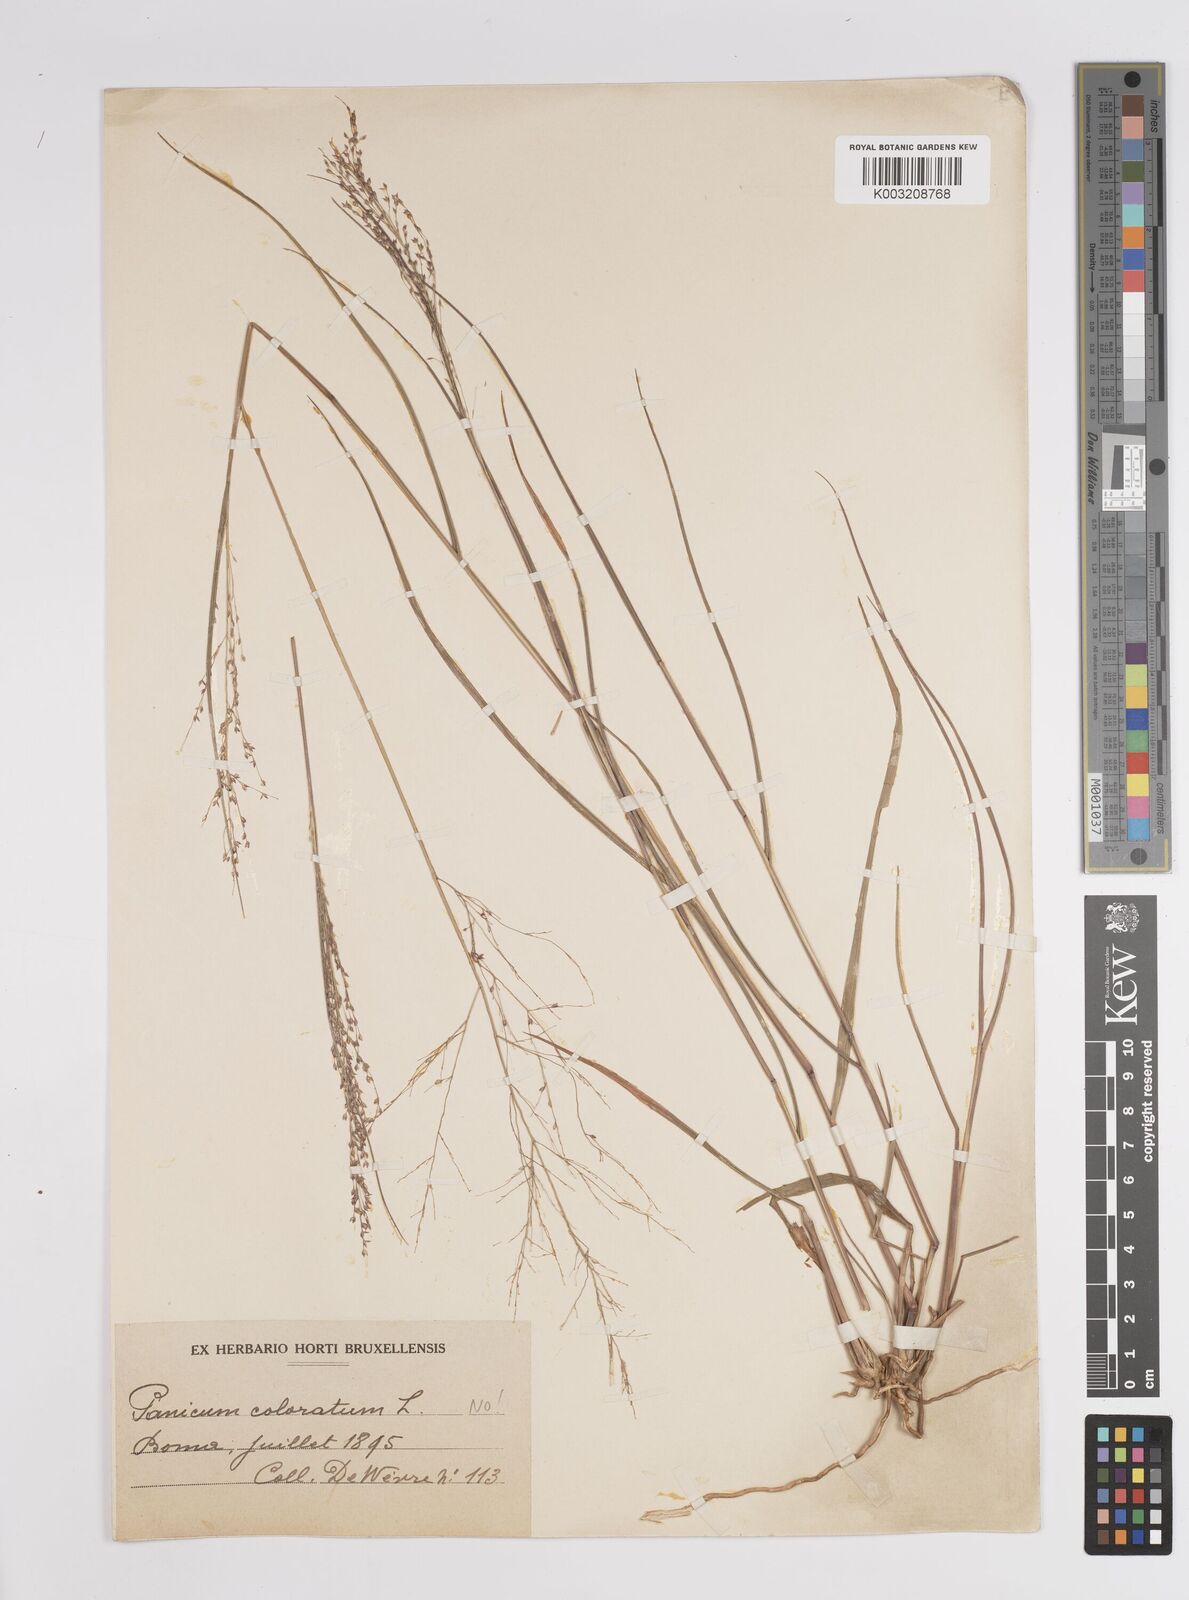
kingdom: Plantae
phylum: Tracheophyta
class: Liliopsida
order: Poales
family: Poaceae
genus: Panicum
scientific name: Panicum fluviicola
